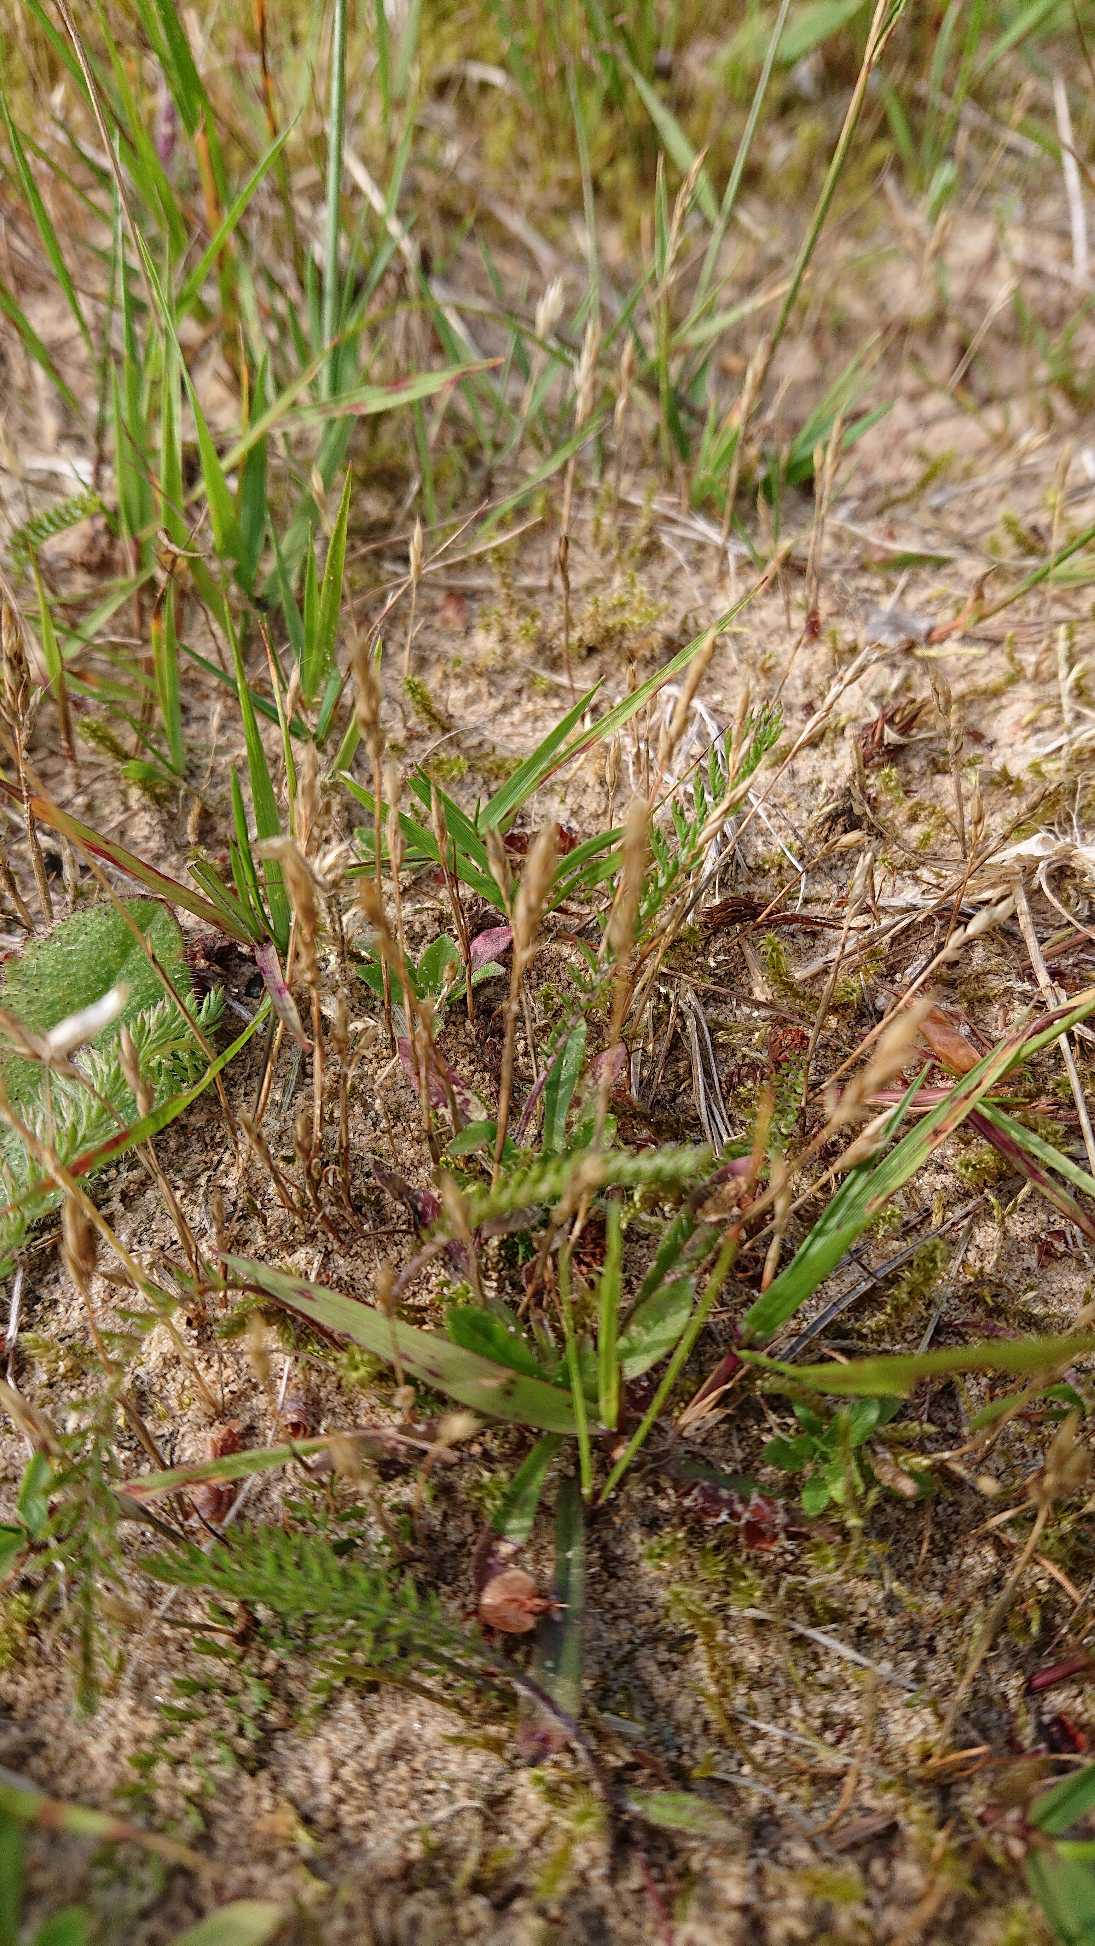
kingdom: Plantae
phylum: Tracheophyta
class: Liliopsida
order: Poales
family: Poaceae
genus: Aira
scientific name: Aira praecox
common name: Tidlig dværgbunke
